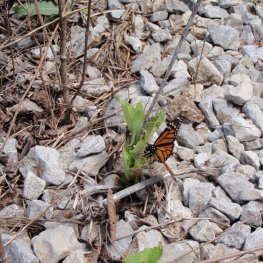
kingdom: Animalia
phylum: Arthropoda
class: Insecta
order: Lepidoptera
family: Nymphalidae
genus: Danaus
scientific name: Danaus plexippus
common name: Monarch
